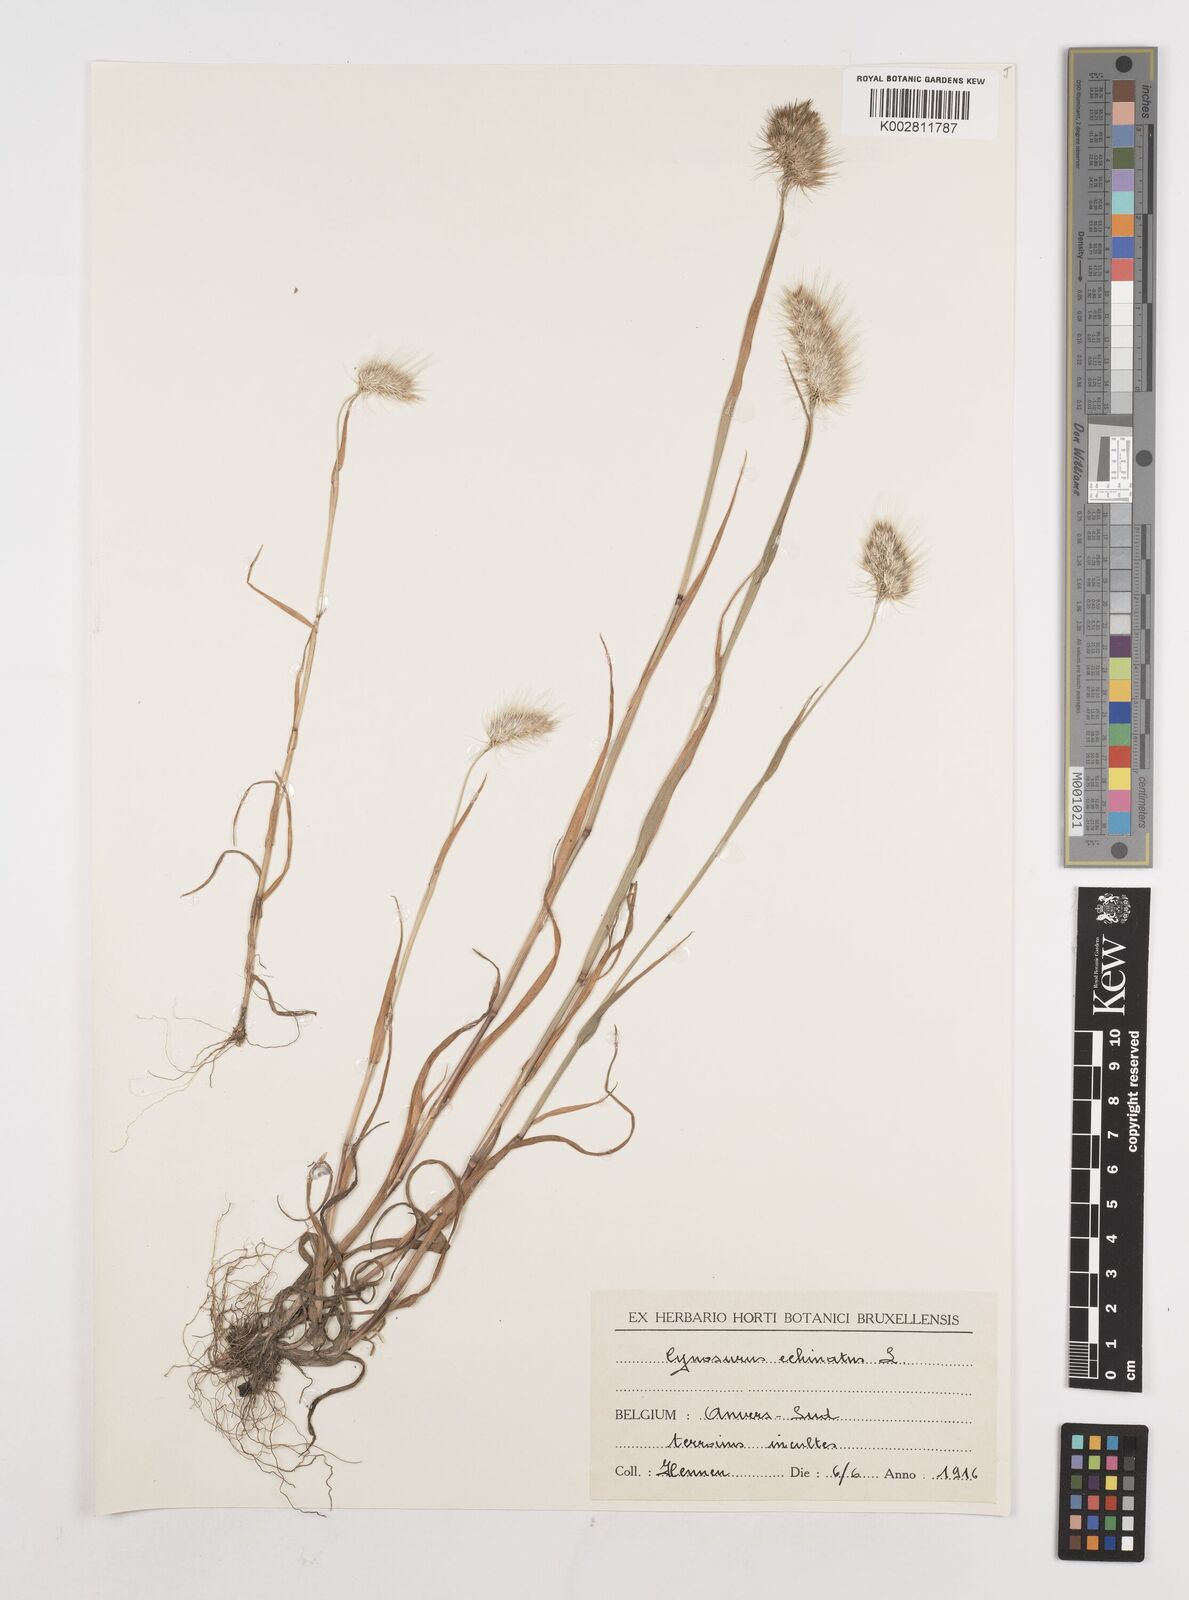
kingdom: Plantae
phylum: Tracheophyta
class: Liliopsida
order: Poales
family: Poaceae
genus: Cynosurus
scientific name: Cynosurus echinatus
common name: Rough dog's-tail
